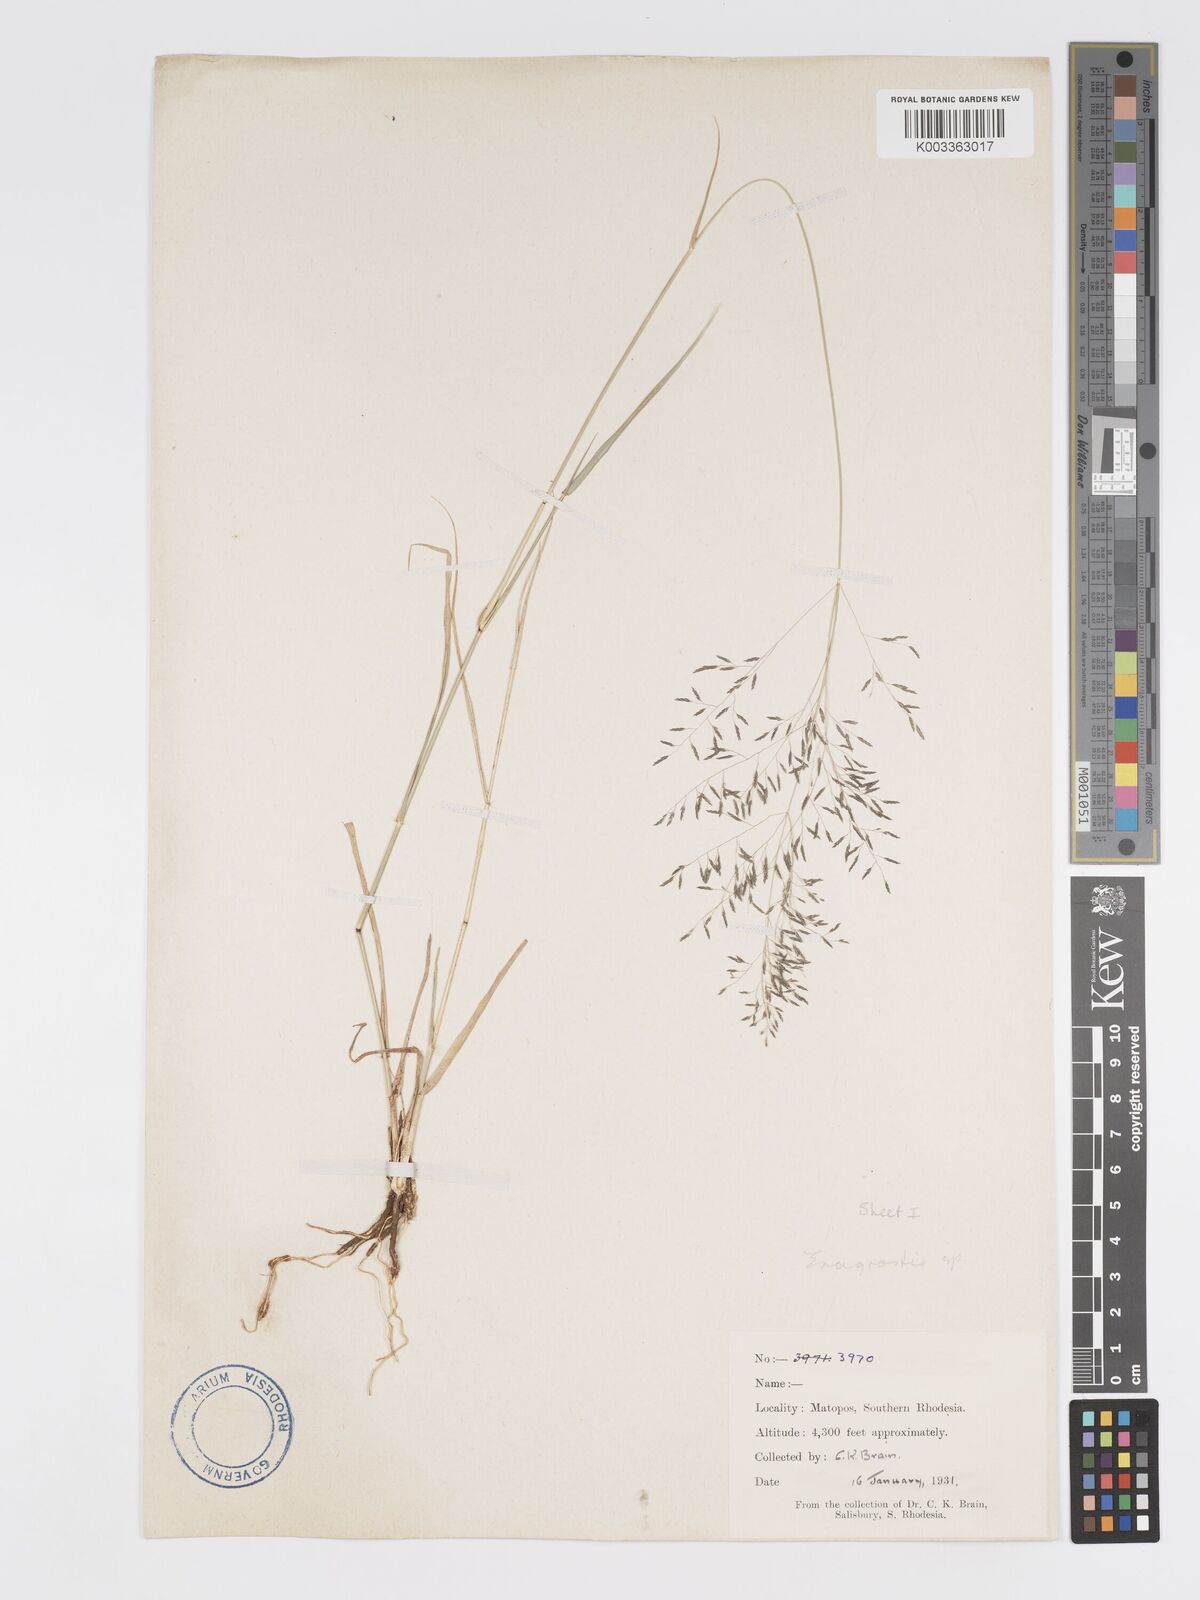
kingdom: Plantae
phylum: Tracheophyta
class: Liliopsida
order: Poales
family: Poaceae
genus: Eragrostis
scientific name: Eragrostis cylindriflora
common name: Cylinderflower lovegrass
